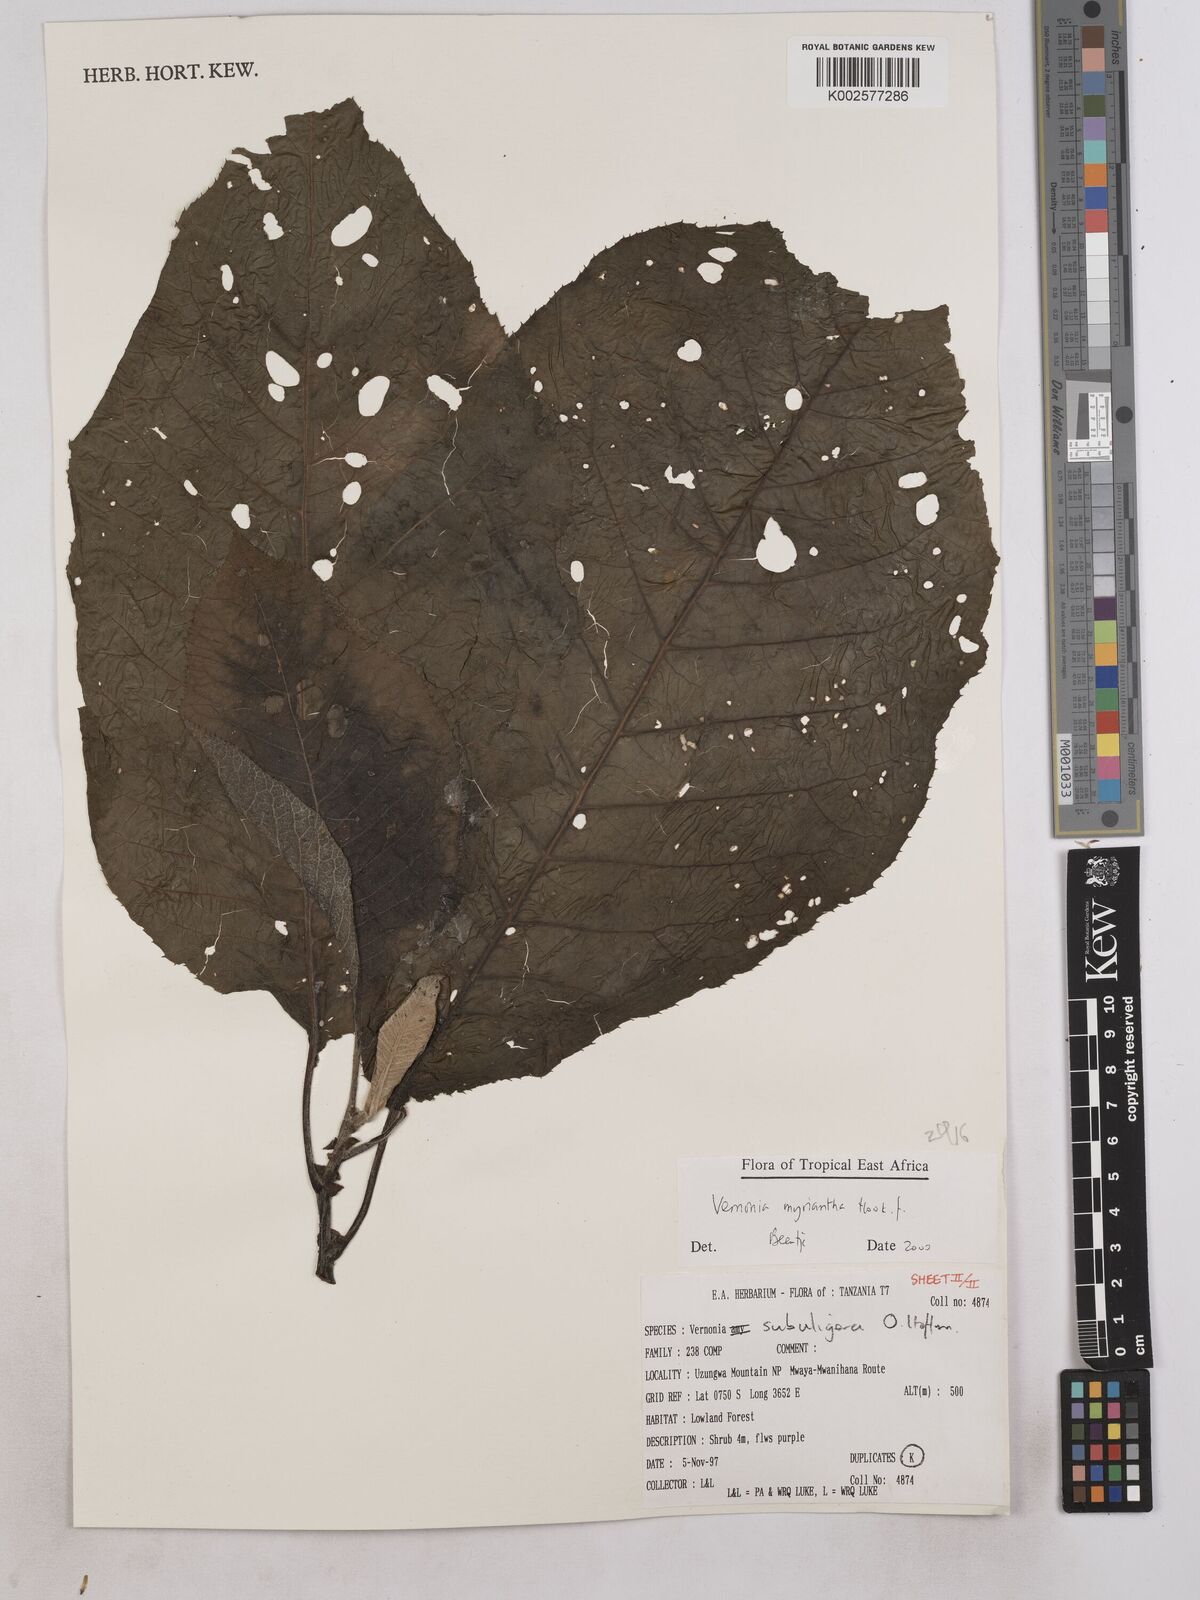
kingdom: Plantae
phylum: Tracheophyta
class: Magnoliopsida
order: Asterales
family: Asteraceae
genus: Gymnanthemum
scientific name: Gymnanthemum myrianthum
